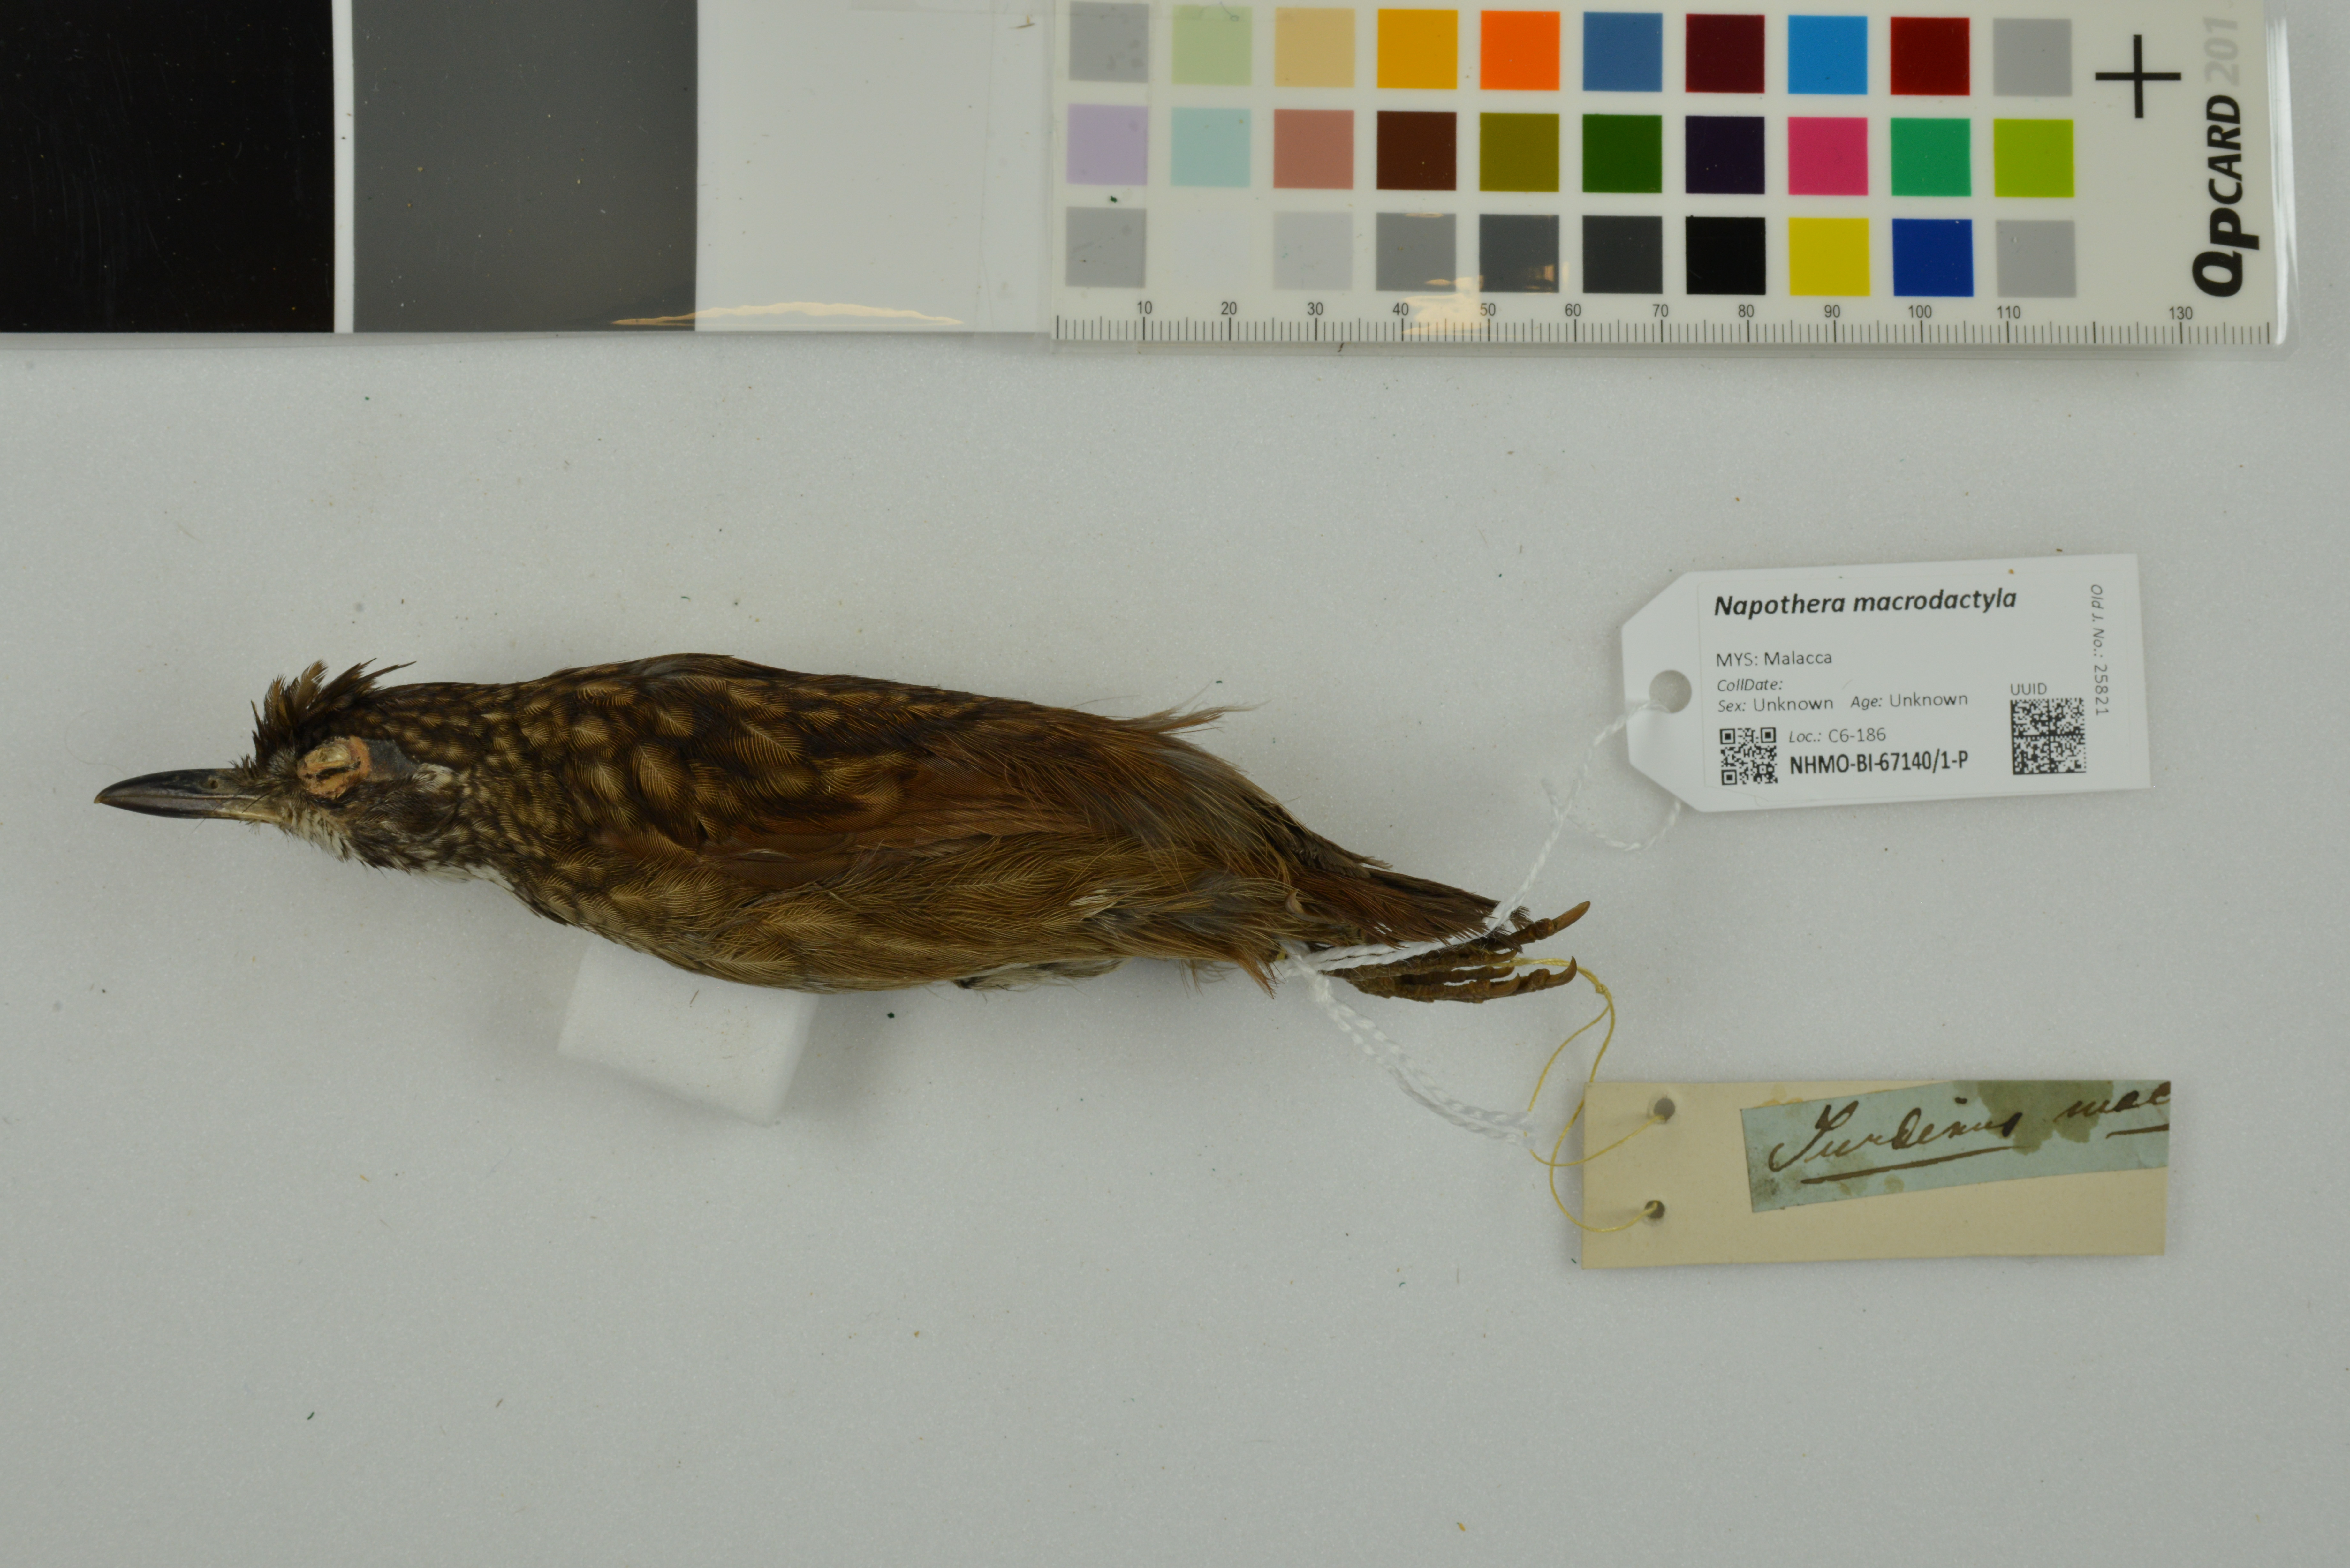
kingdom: Animalia
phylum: Chordata
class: Aves
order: Passeriformes
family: Pellorneidae
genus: Napothera
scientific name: Napothera macrodactyla
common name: Large wren-babbler
